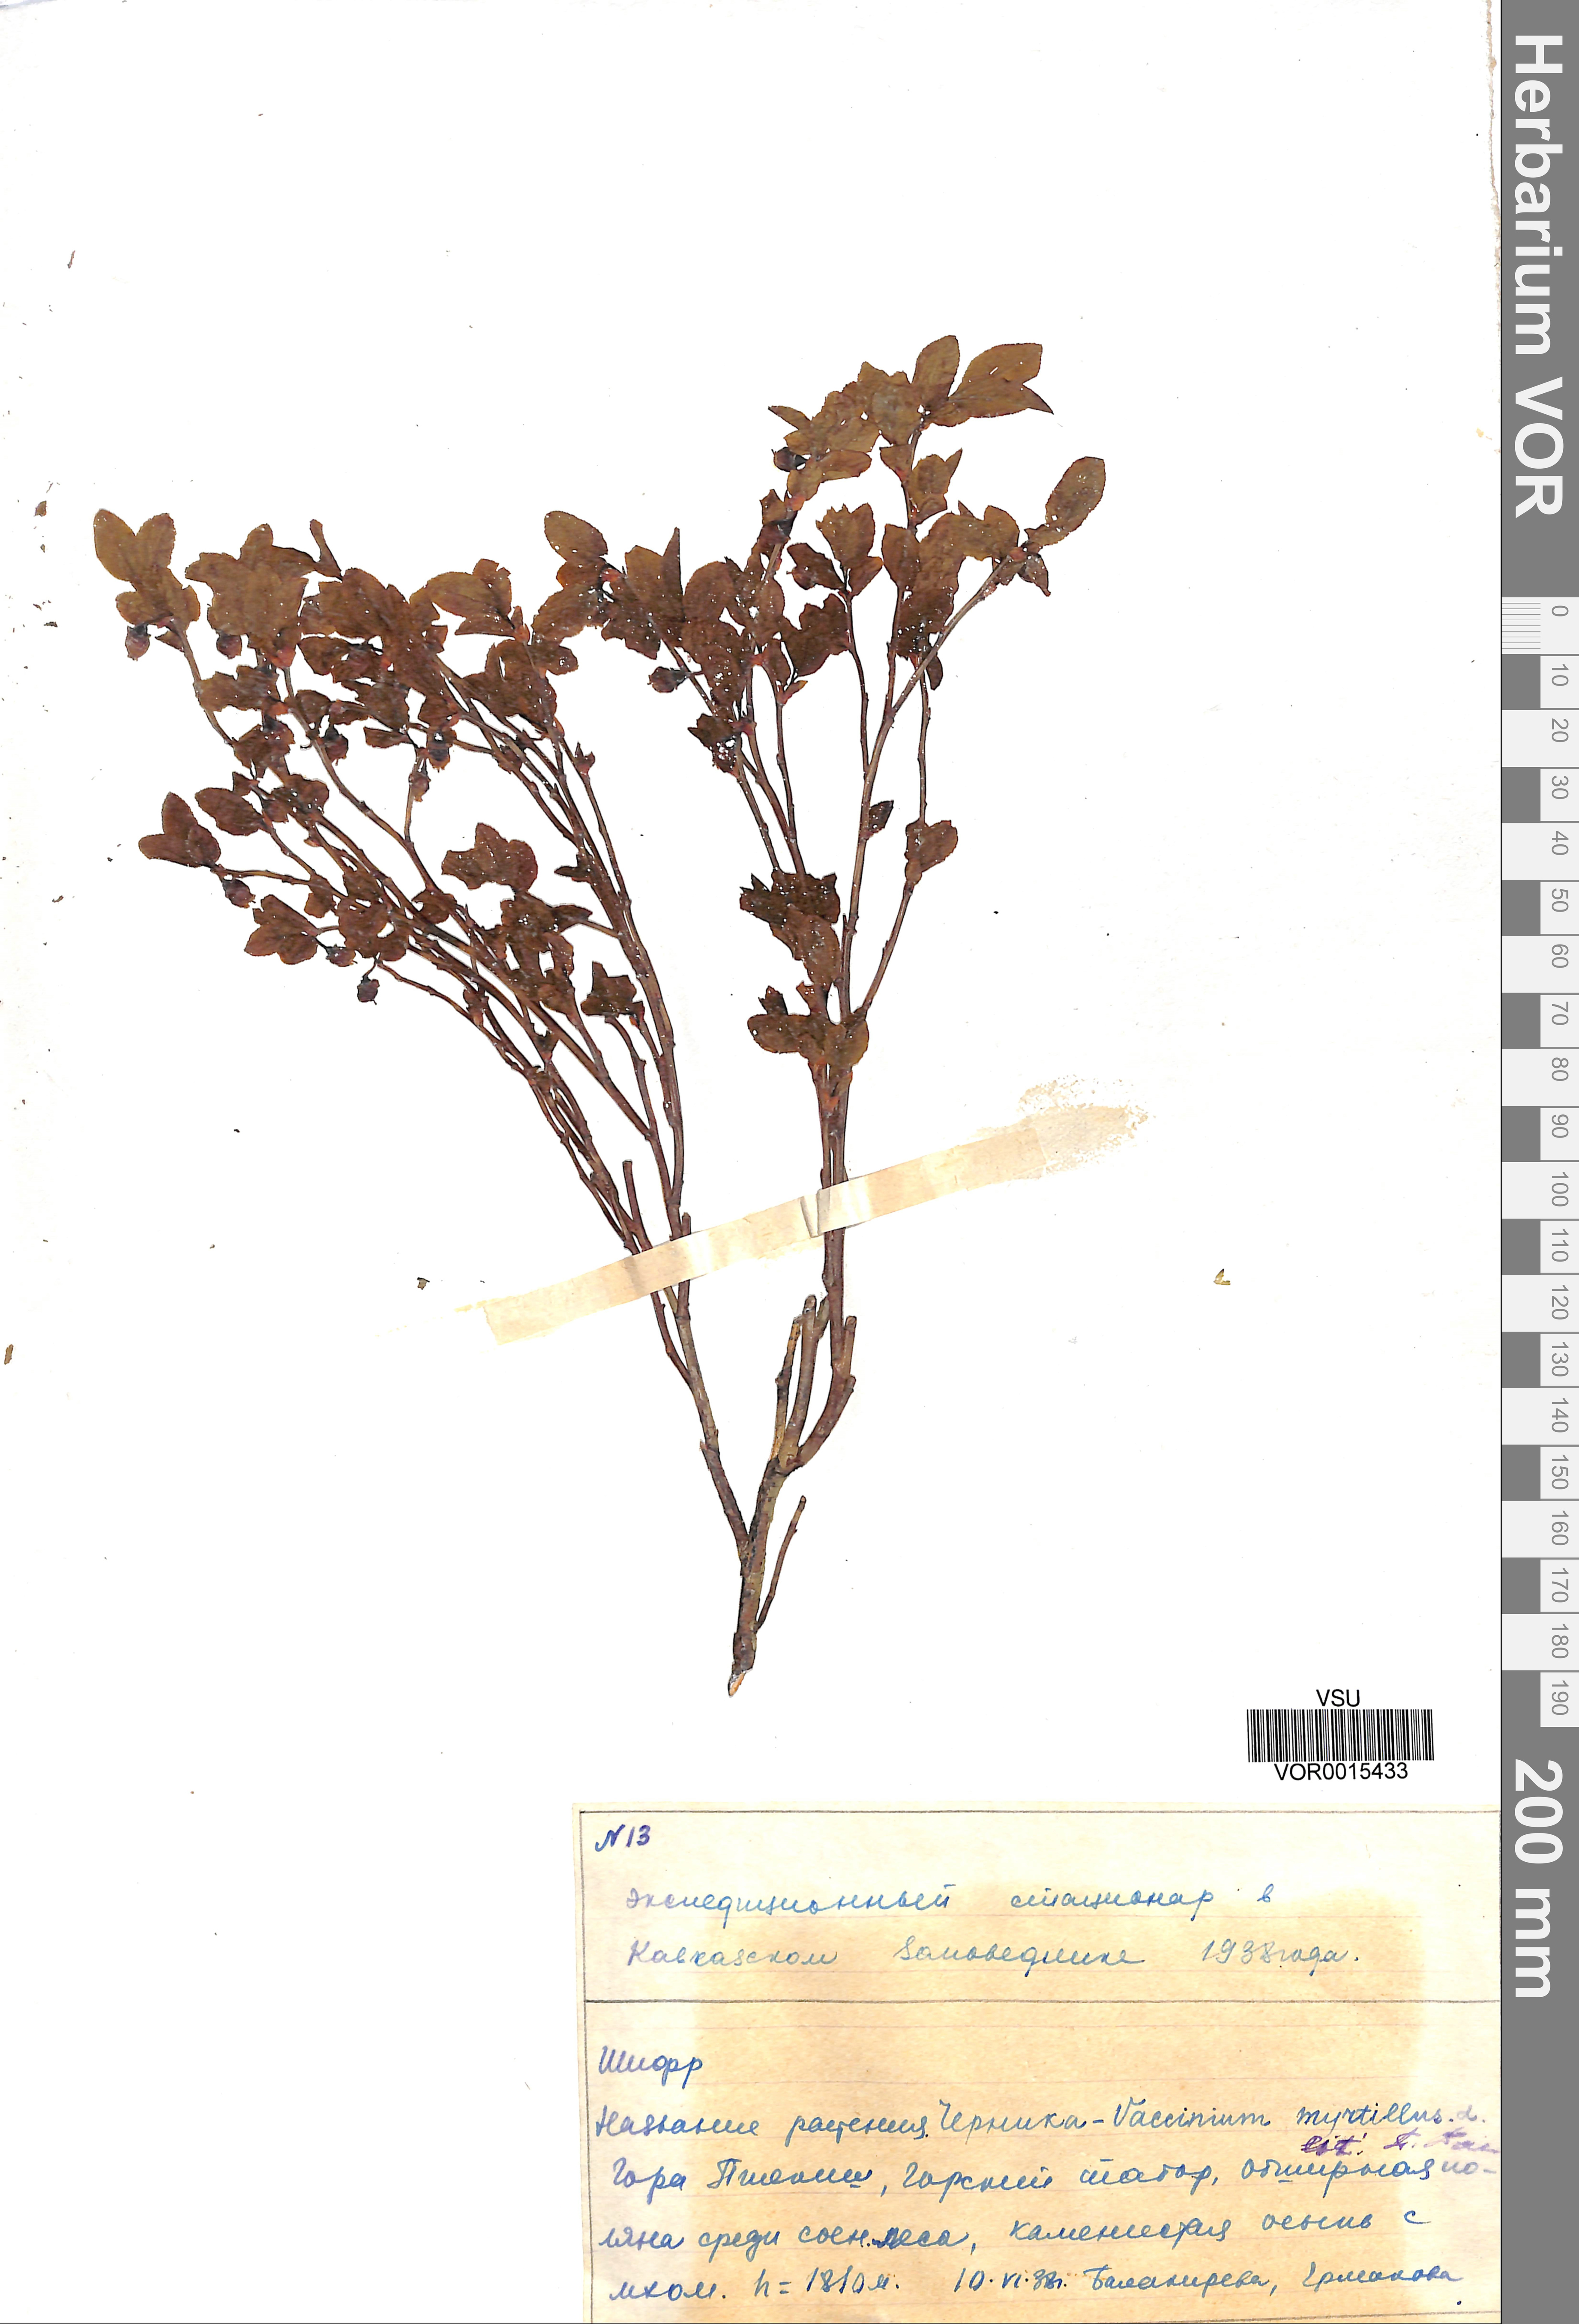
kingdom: Plantae
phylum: Tracheophyta
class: Magnoliopsida
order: Ericales
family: Ericaceae
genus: Vaccinium
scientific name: Vaccinium myrtillus
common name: Bilberry
